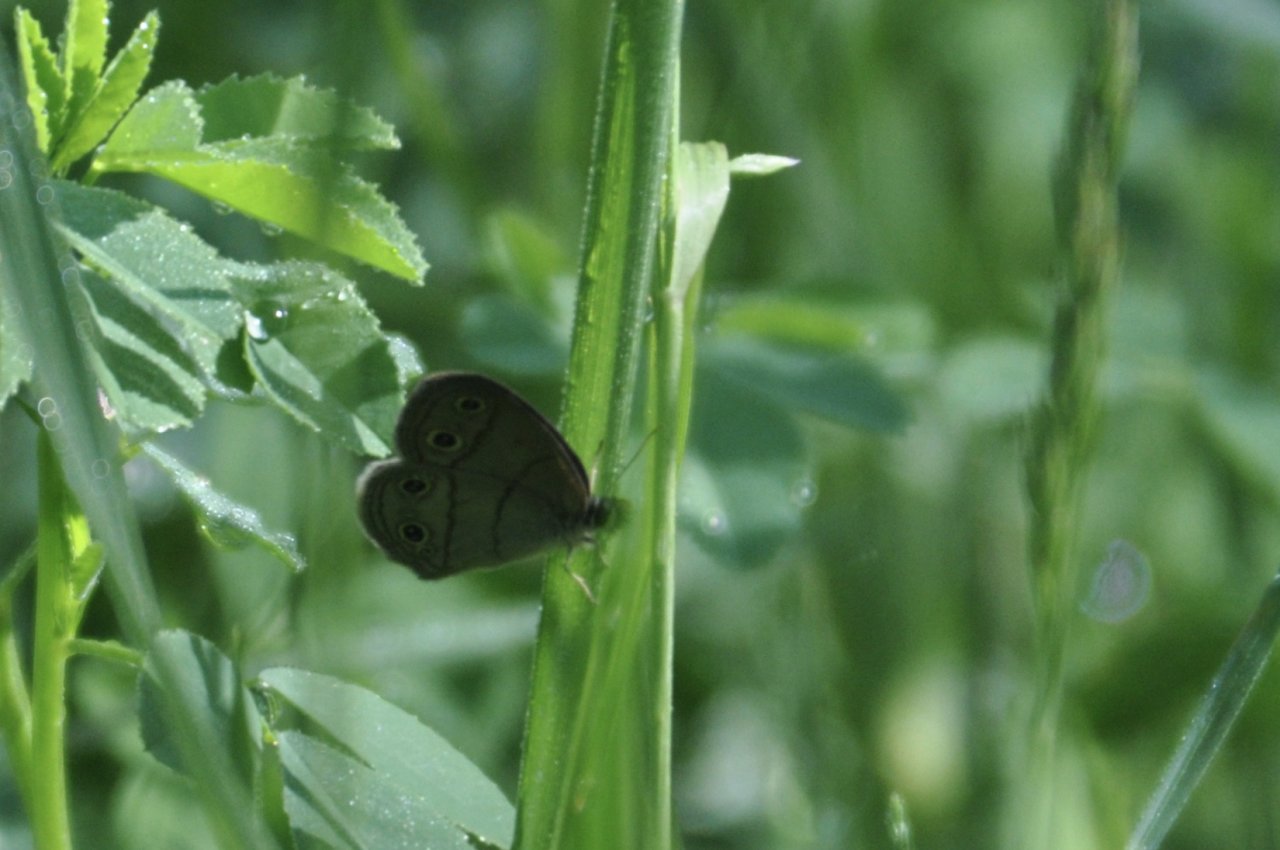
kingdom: Animalia
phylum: Arthropoda
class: Insecta
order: Lepidoptera
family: Nymphalidae
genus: Euptychia
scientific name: Euptychia cymela
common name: Little Wood Satyr
